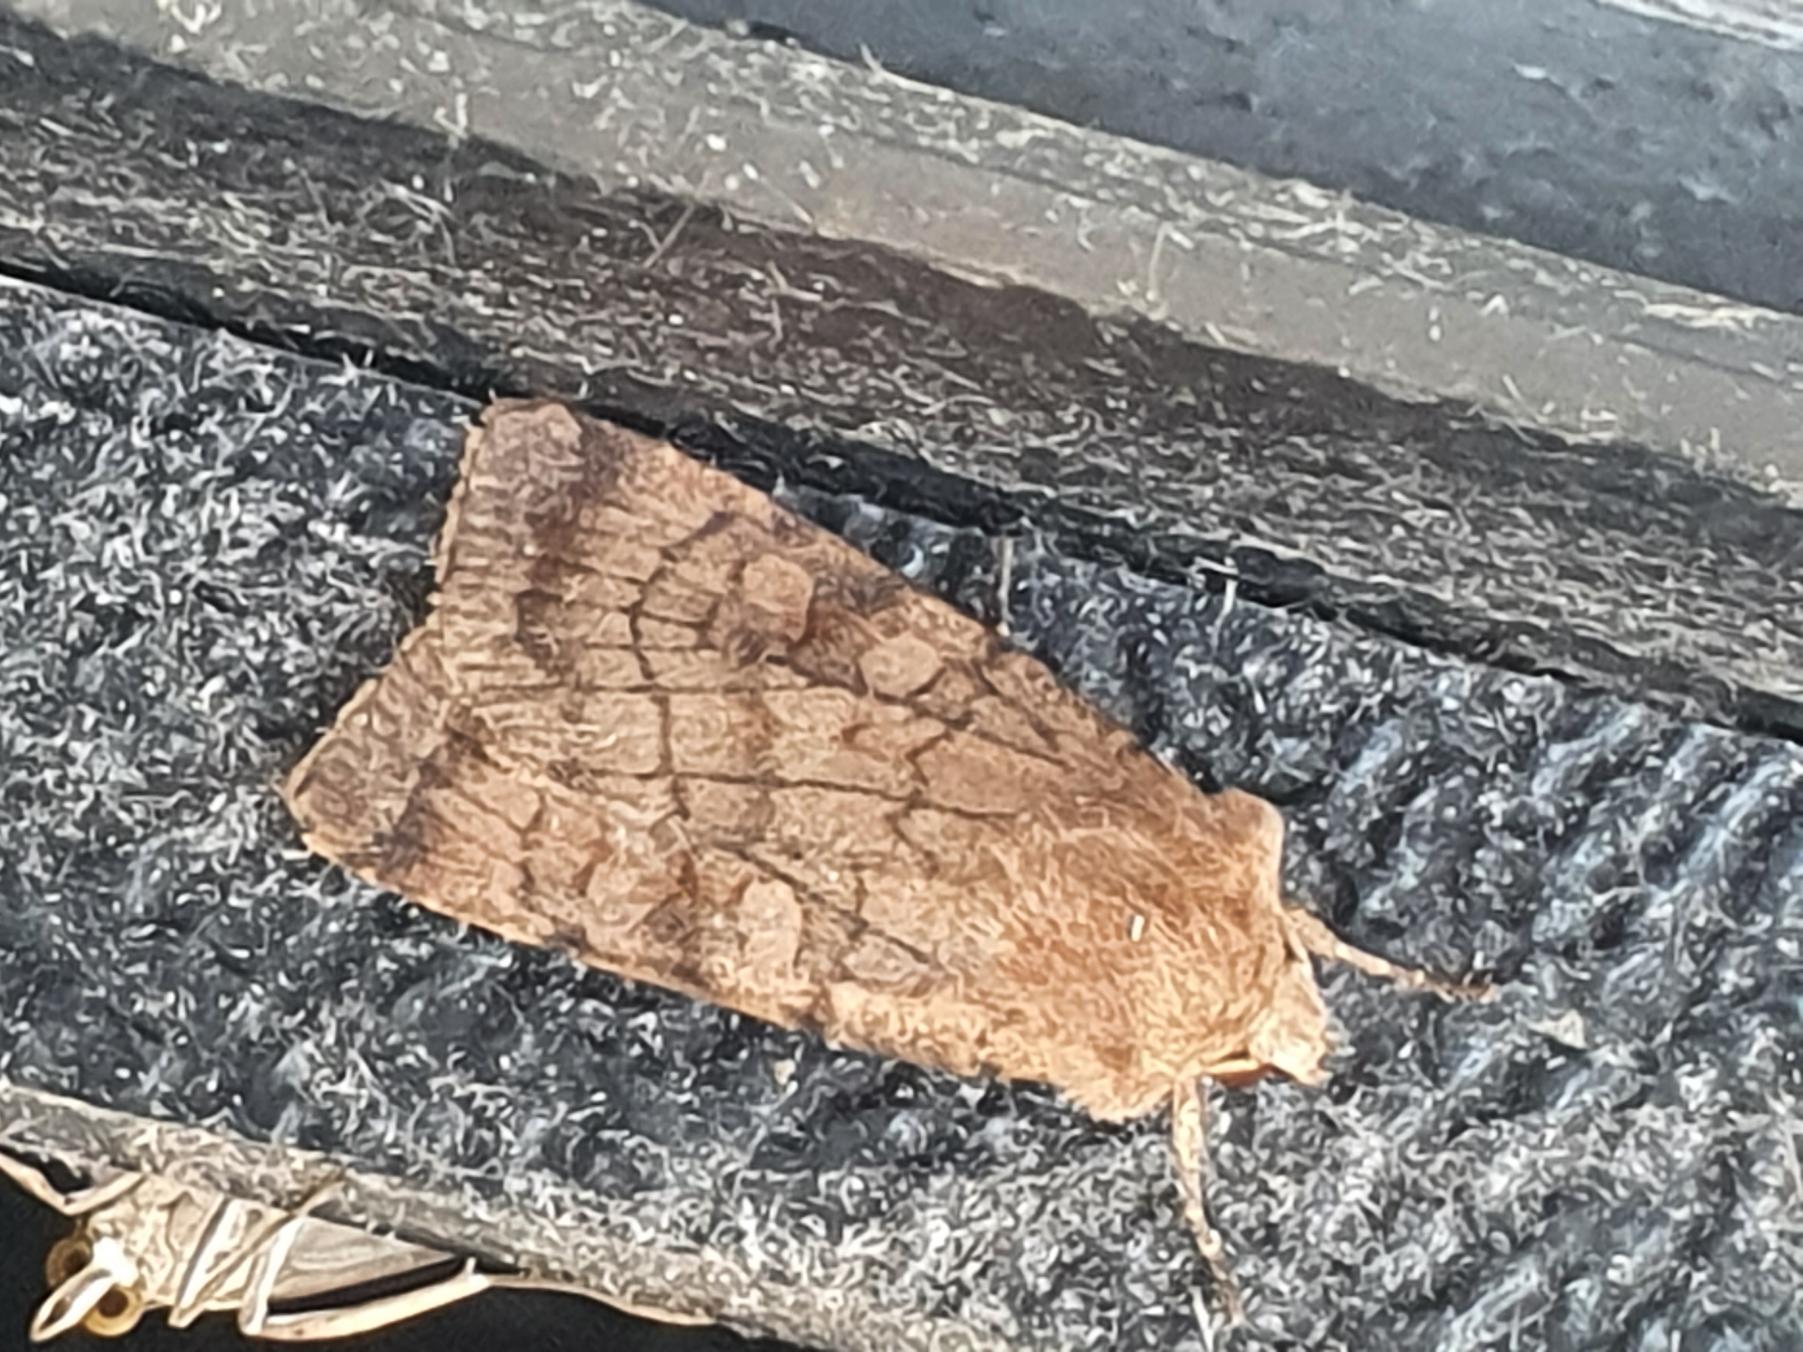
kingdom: Animalia
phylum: Arthropoda
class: Insecta
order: Lepidoptera
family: Noctuidae
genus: Xestia
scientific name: Xestia sexstrigata
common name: Seksliniet glansugle
